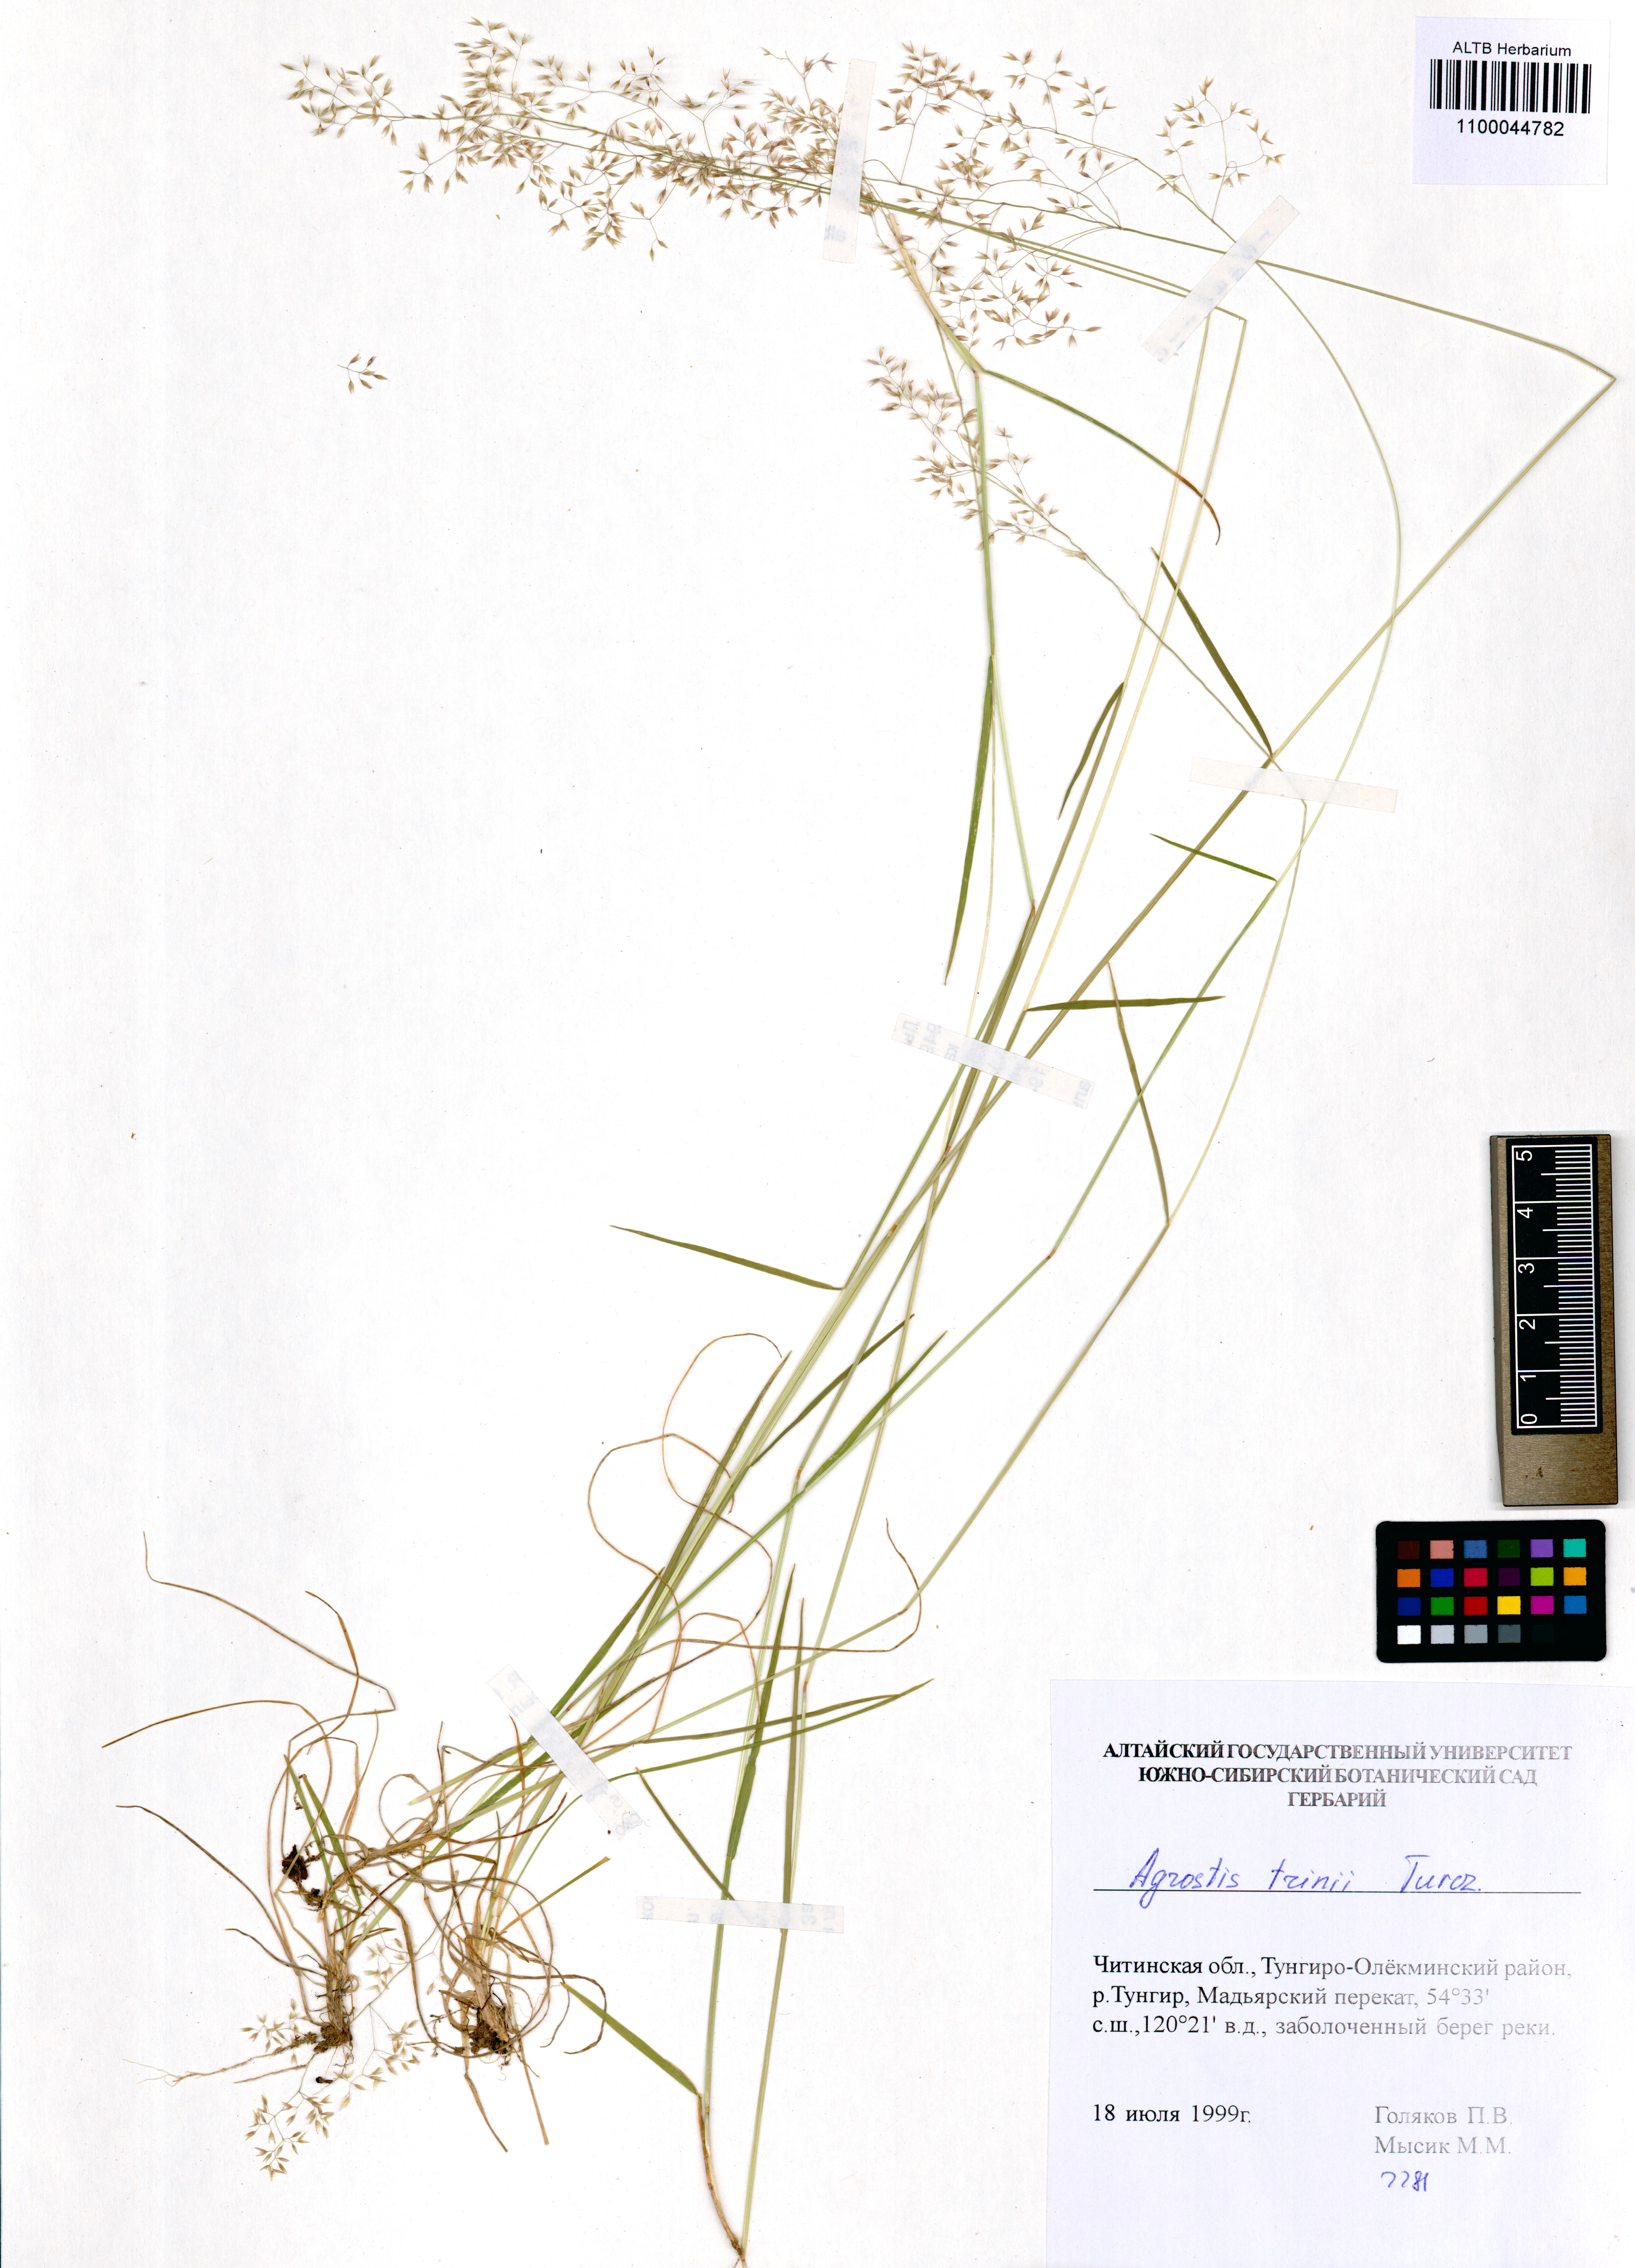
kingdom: Plantae
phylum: Tracheophyta
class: Liliopsida
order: Poales
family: Poaceae
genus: Agrostis
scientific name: Agrostis vinealis
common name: Brown bent
